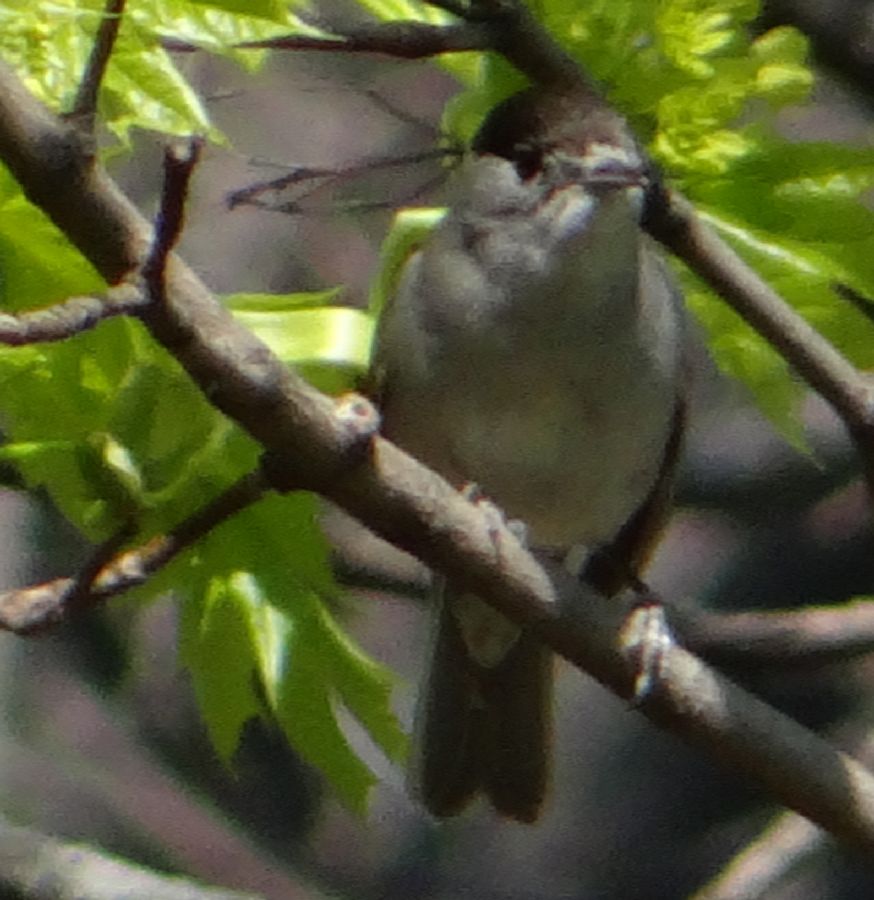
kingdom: Animalia
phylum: Chordata
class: Aves
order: Passeriformes
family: Sylviidae
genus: Sylvia
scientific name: Sylvia atricapilla
